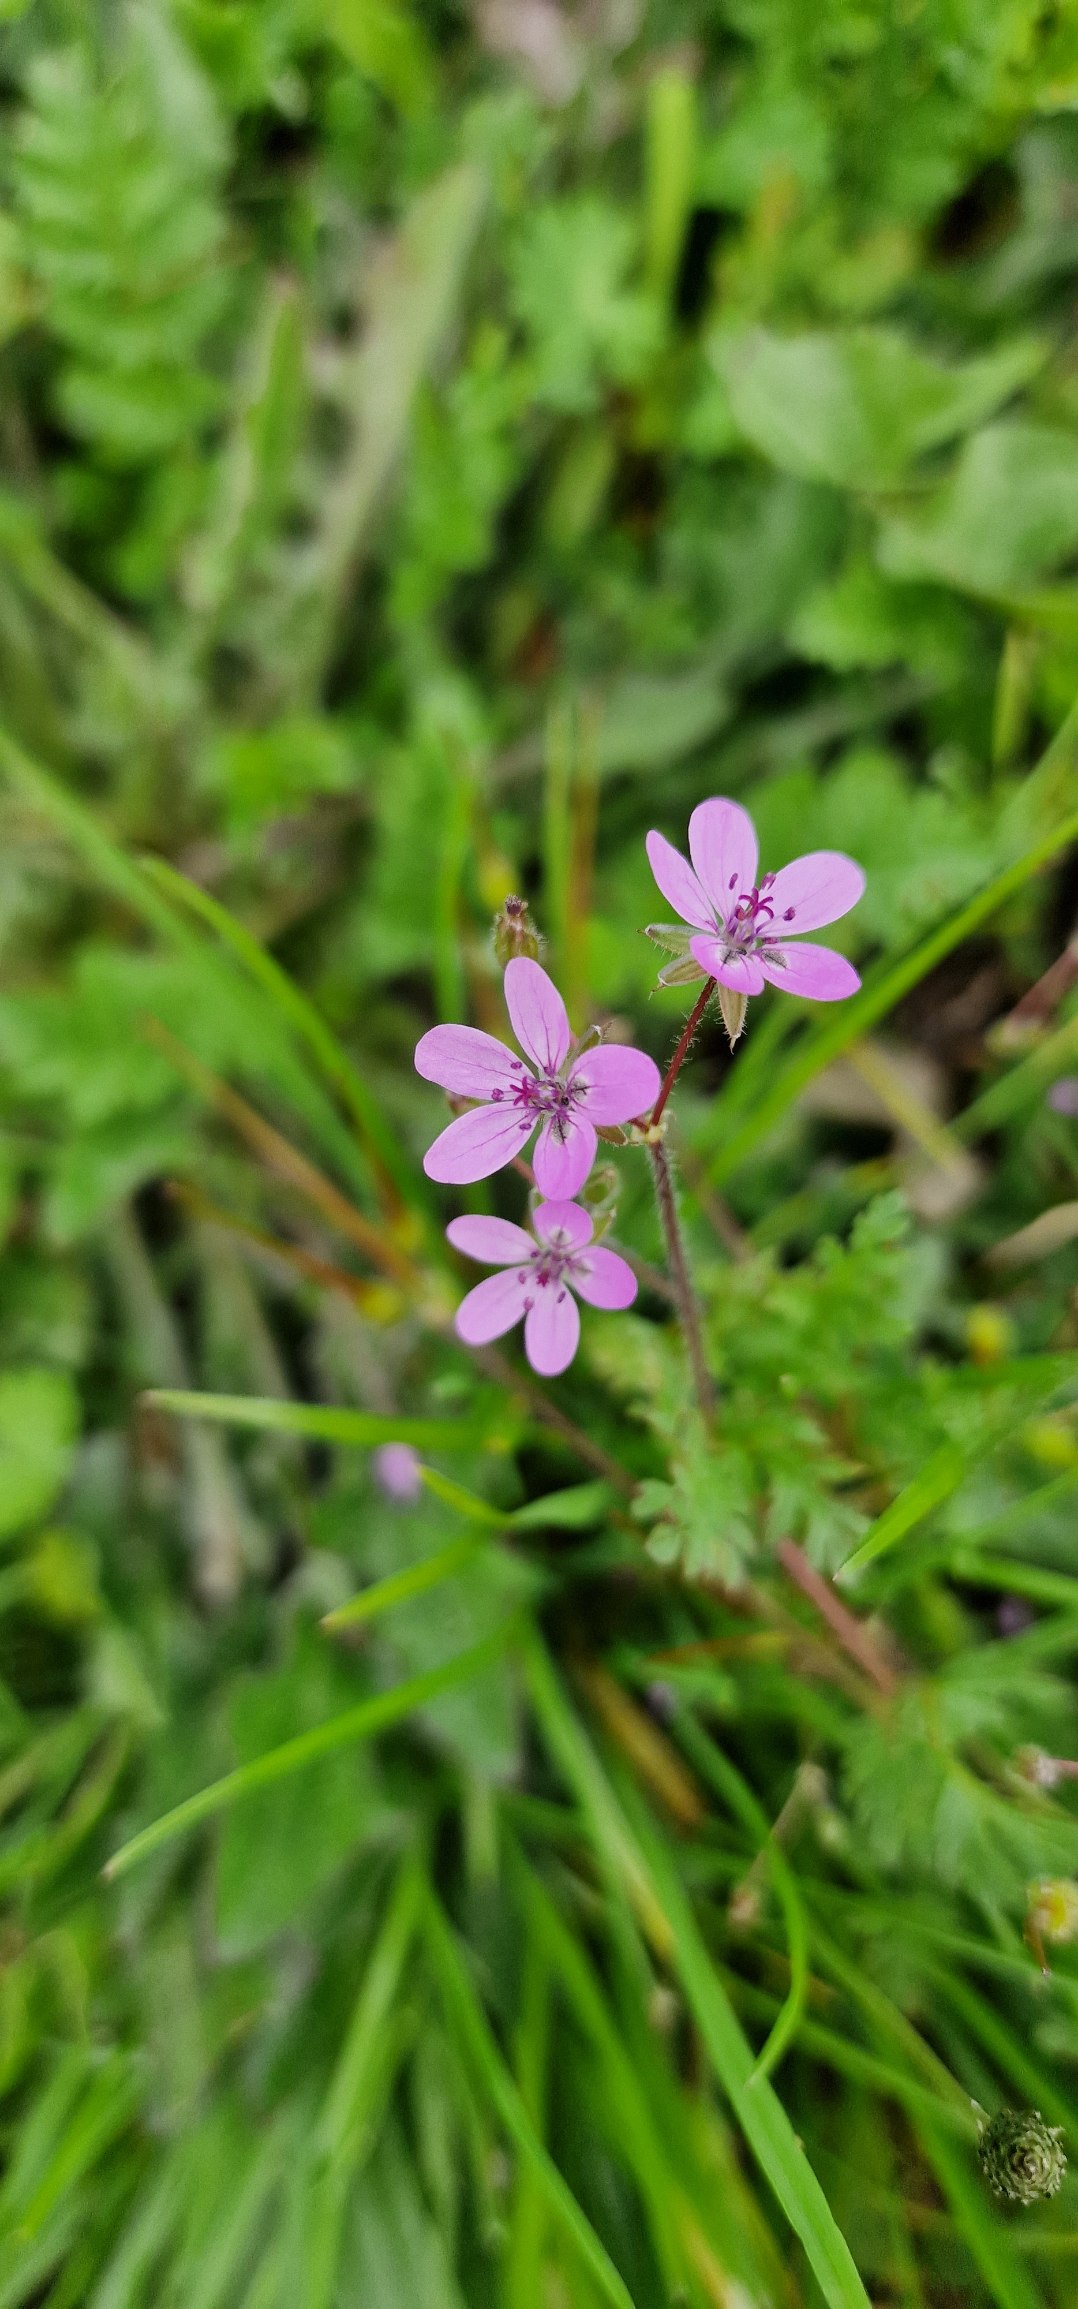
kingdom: Plantae
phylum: Tracheophyta
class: Magnoliopsida
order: Geraniales
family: Geraniaceae
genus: Erodium
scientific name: Erodium cicutarium
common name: Hejrenæb
